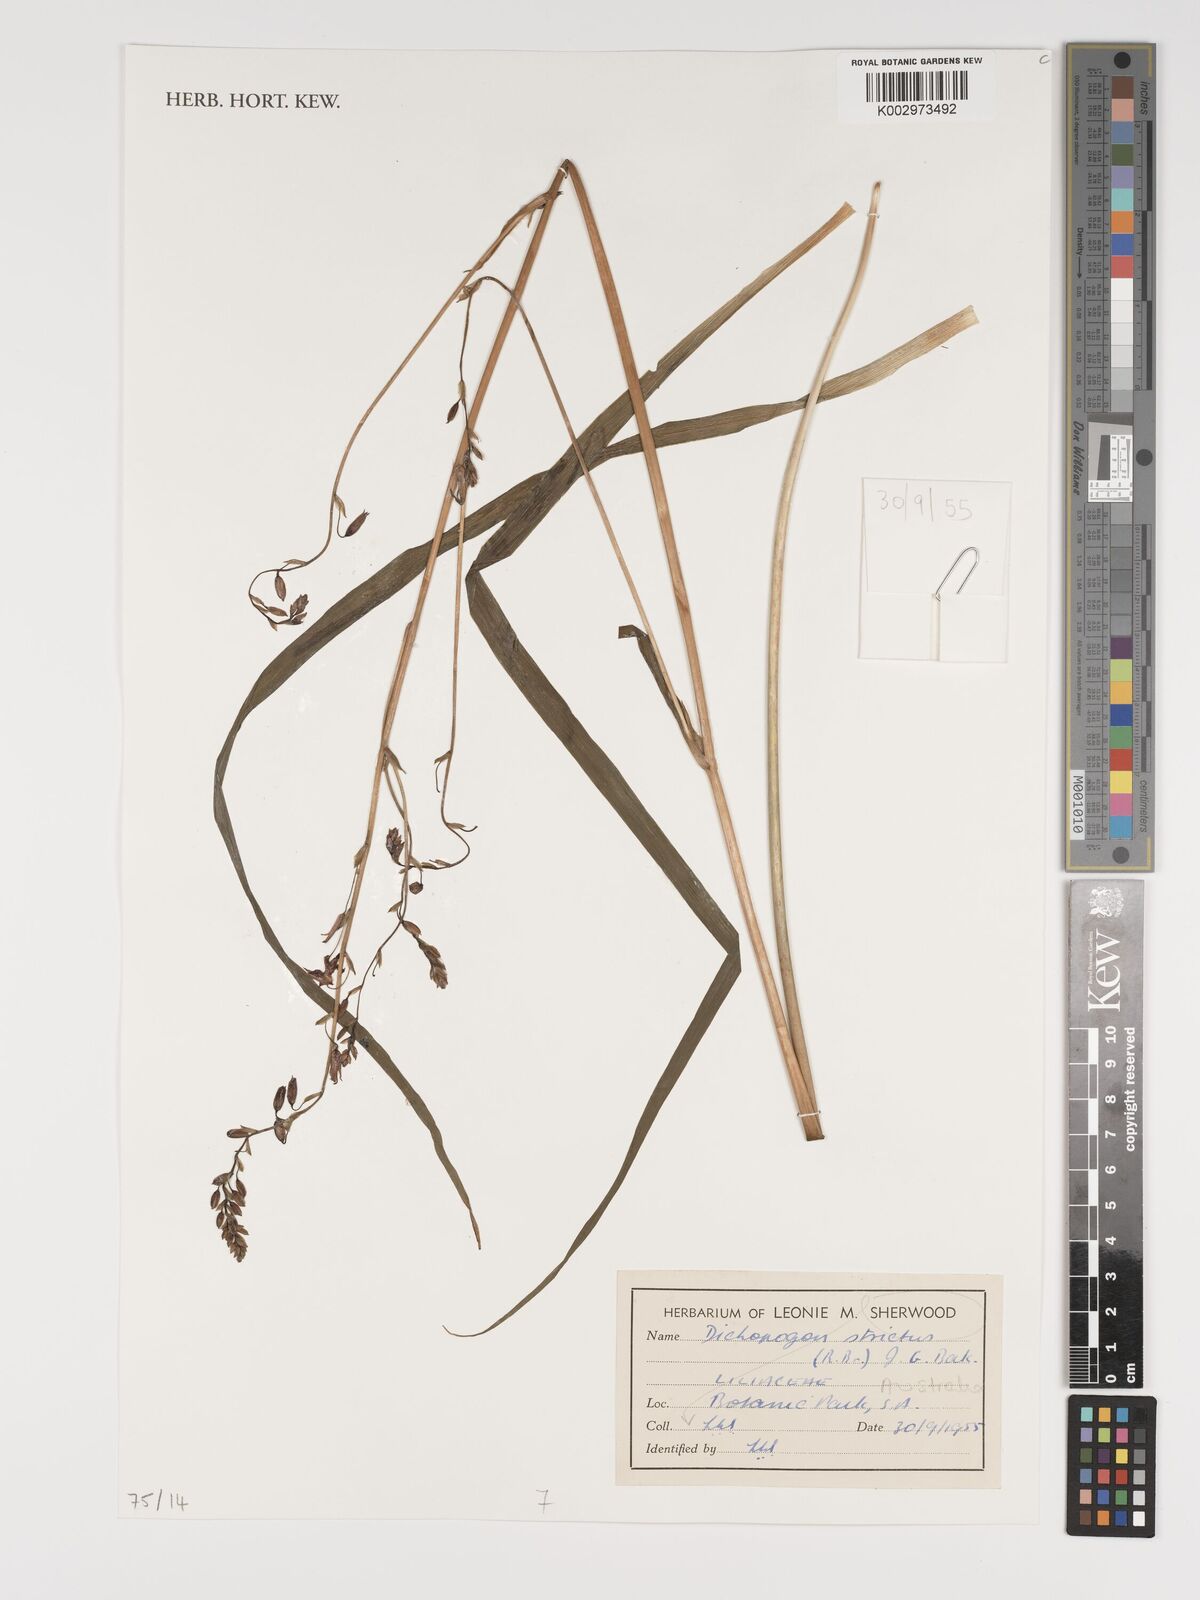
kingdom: Plantae
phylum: Tracheophyta
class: Liliopsida
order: Asparagales
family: Asparagaceae
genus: Arthropodium
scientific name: Arthropodium strictum
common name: Chocolate-lily
